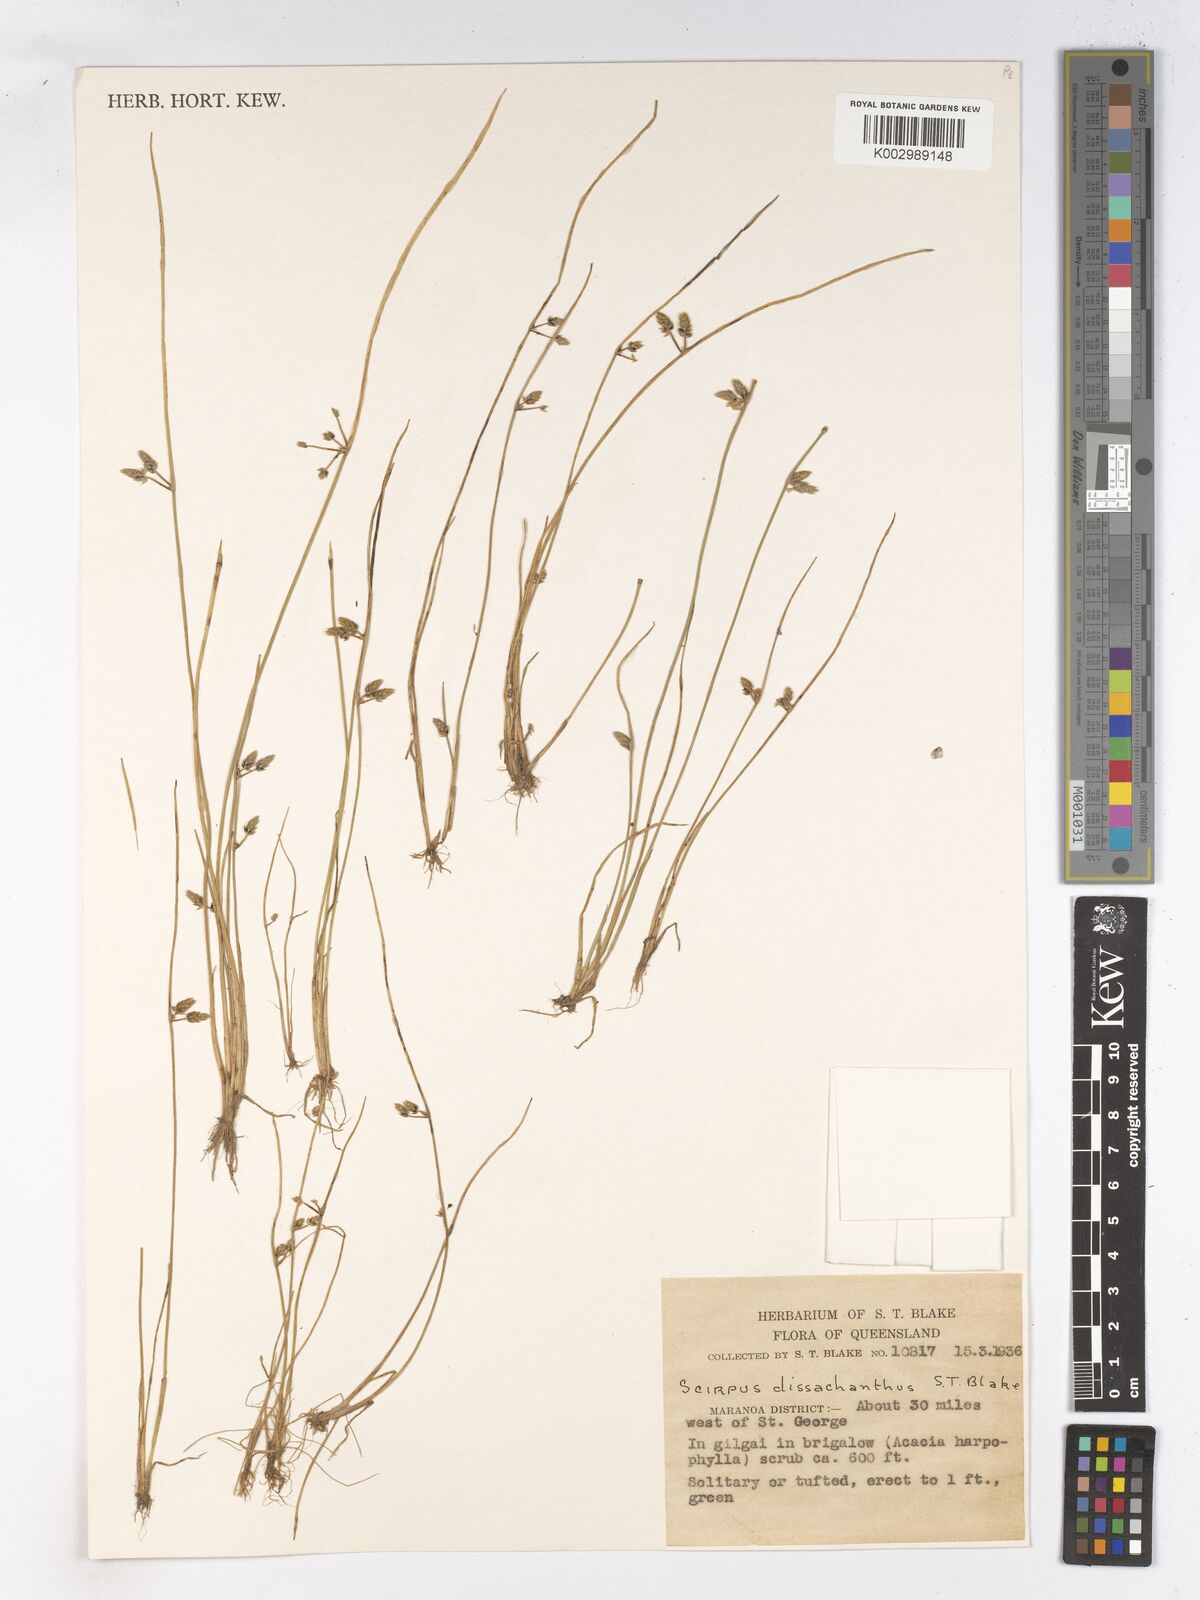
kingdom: Plantae
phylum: Tracheophyta
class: Liliopsida
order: Poales
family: Cyperaceae
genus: Schoenoplectiella
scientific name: Schoenoplectiella dissachantha
